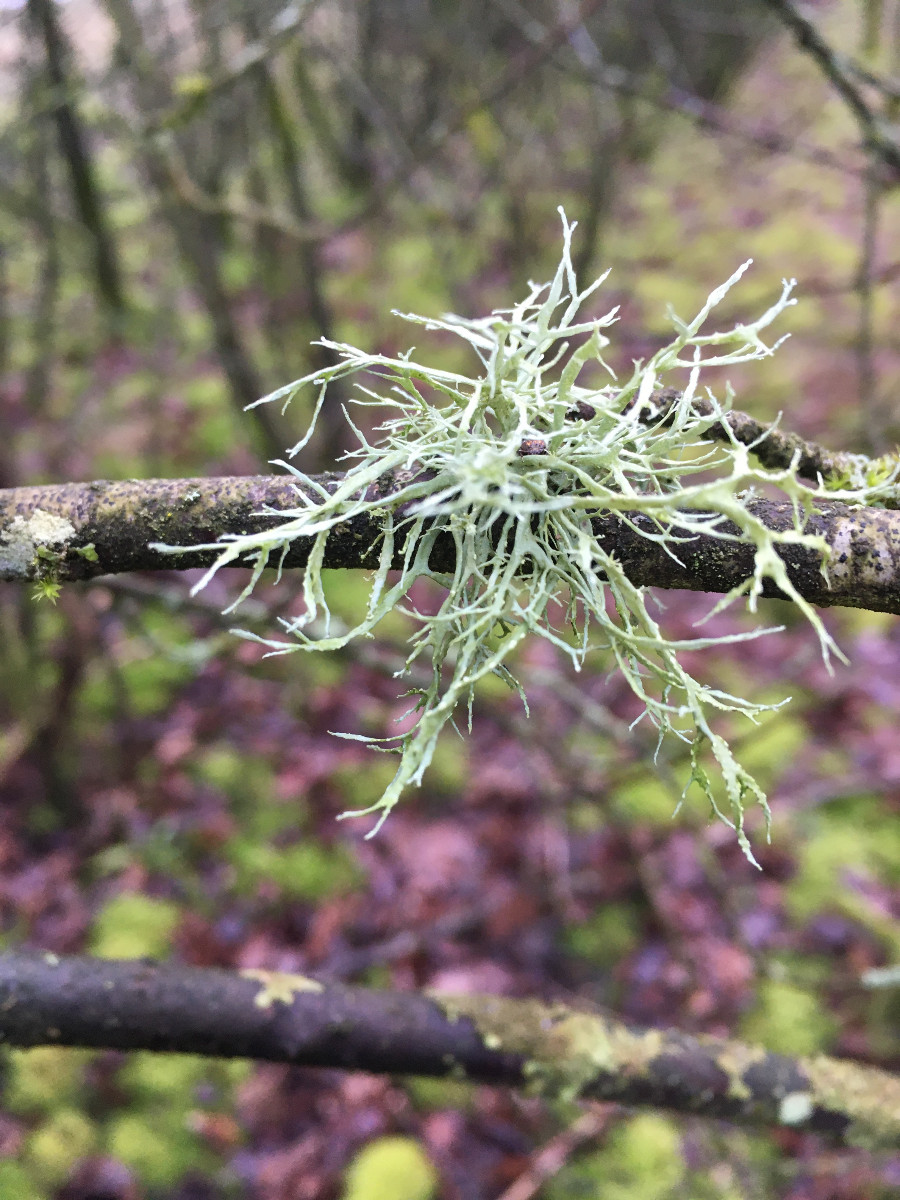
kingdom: Fungi
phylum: Ascomycota
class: Lecanoromycetes
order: Lecanorales
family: Ramalinaceae
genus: Ramalina
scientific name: Ramalina farinacea
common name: melet grenlav
